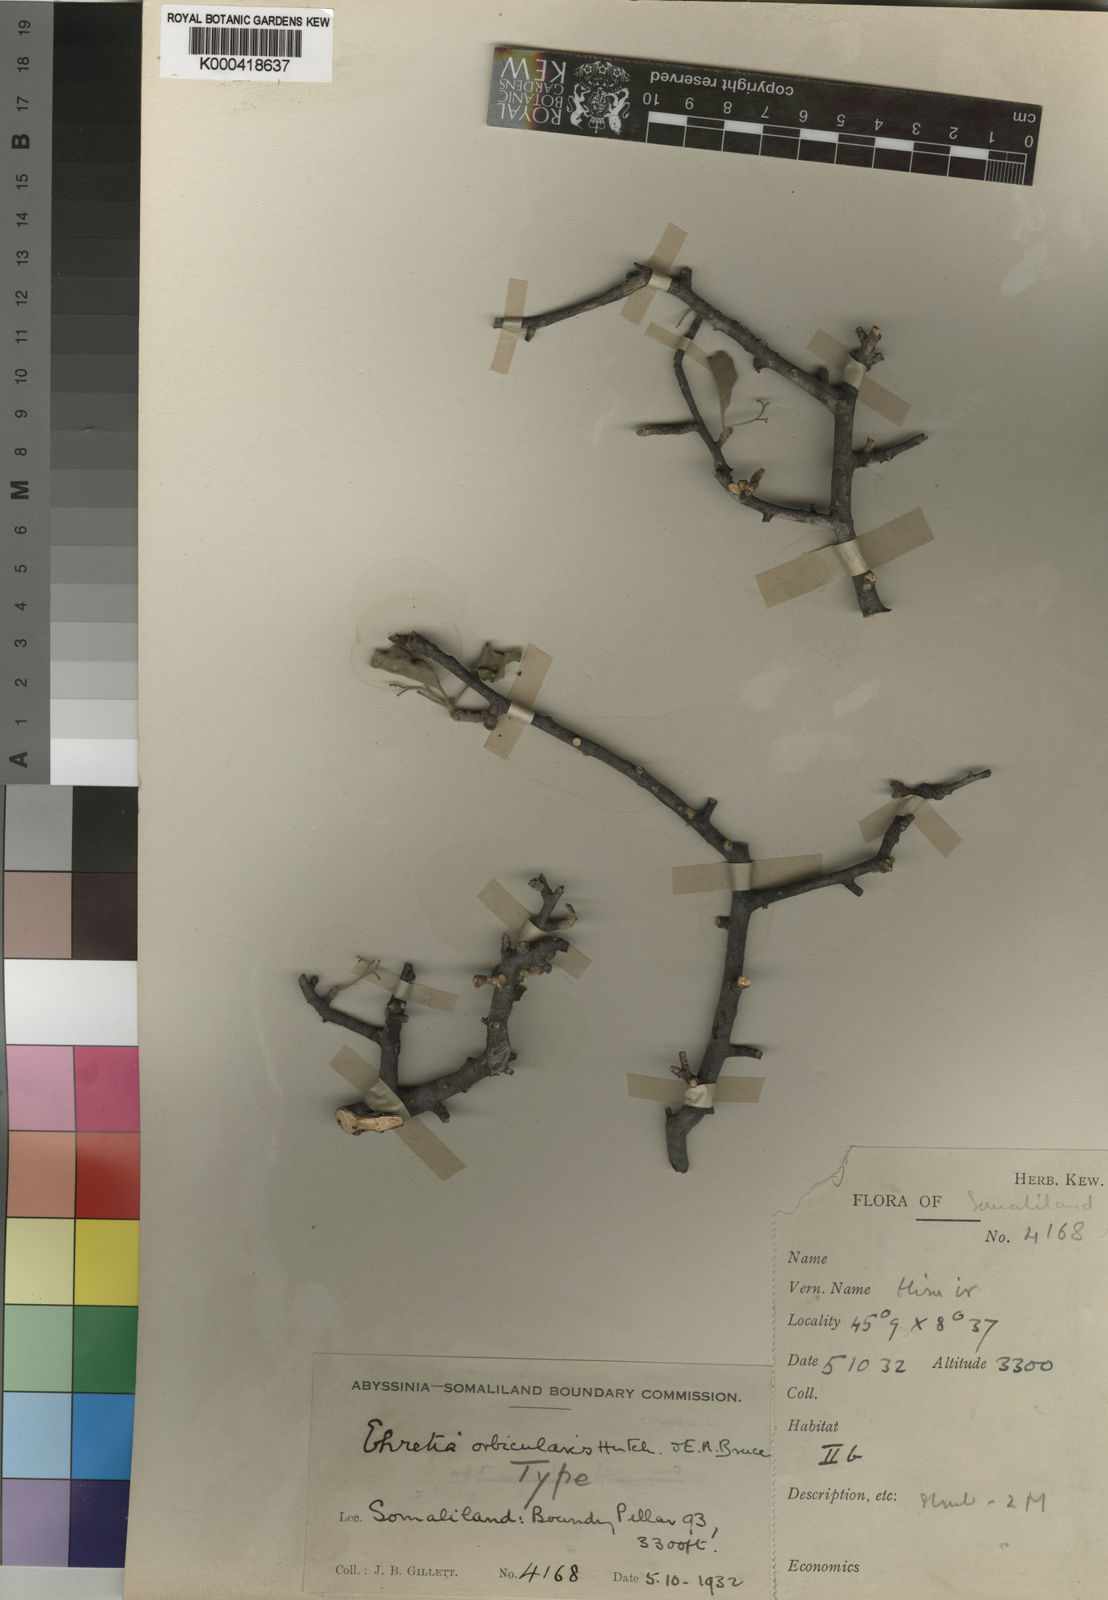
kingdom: Plantae
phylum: Tracheophyta
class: Magnoliopsida
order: Boraginales
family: Ehretiaceae
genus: Bourreria
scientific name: Bourreria orbicularis
